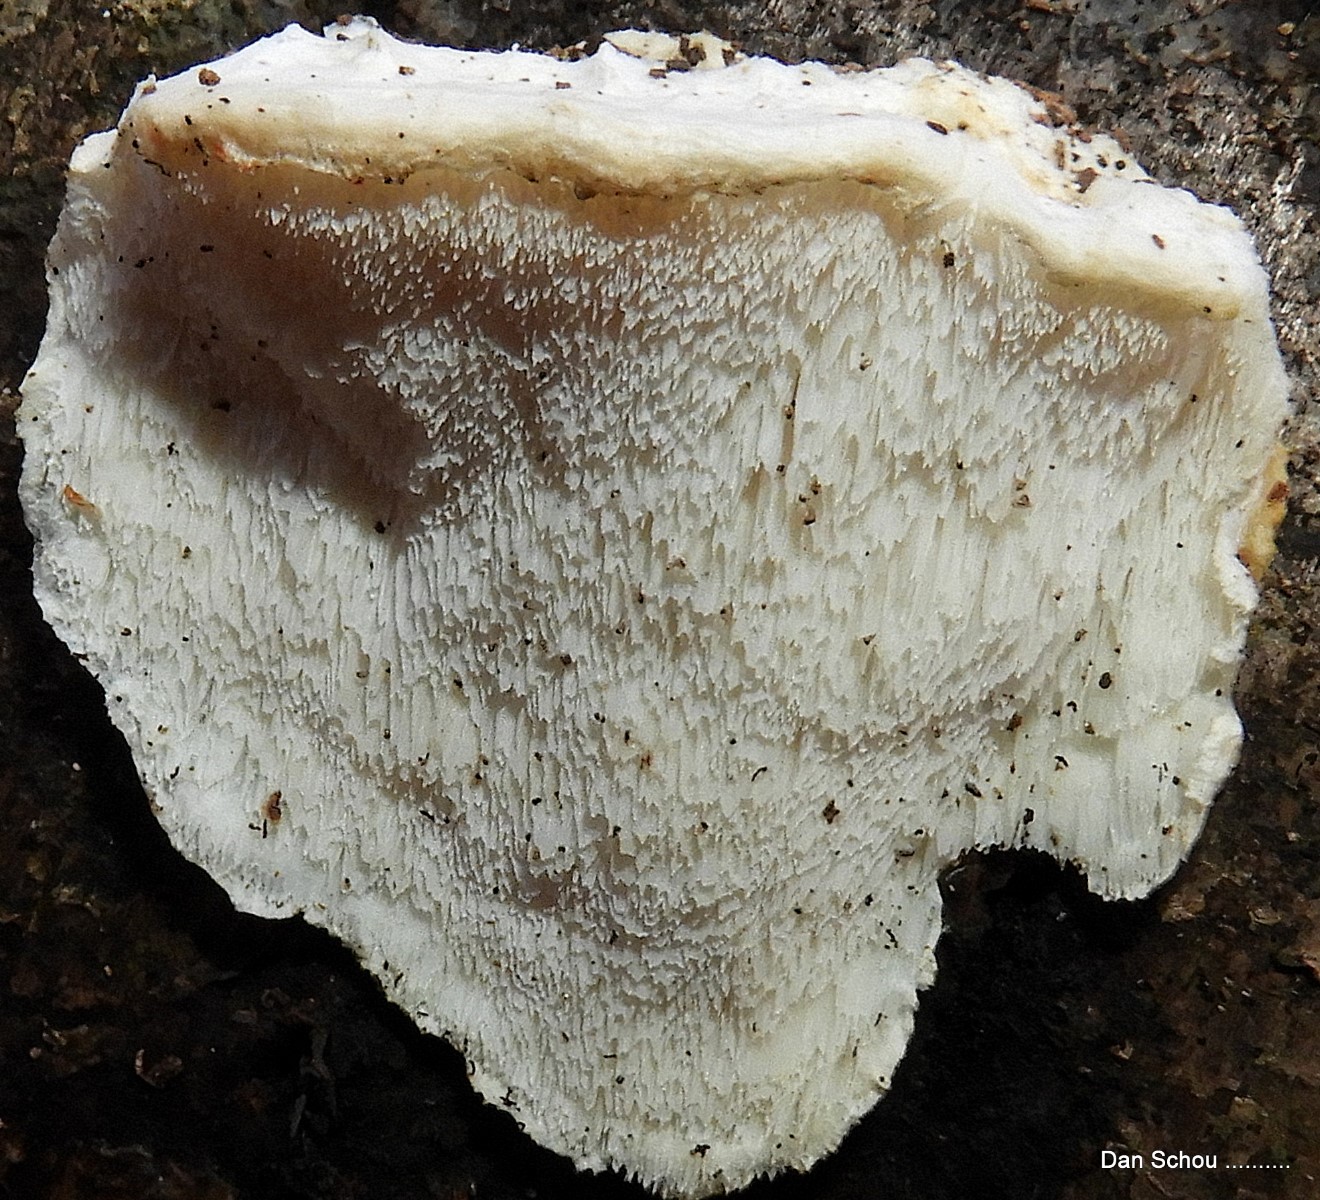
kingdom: Fungi
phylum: Basidiomycota
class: Agaricomycetes
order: Polyporales
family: Dacryobolaceae
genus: Oligoporus
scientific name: Oligoporus
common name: kødporesvamp
